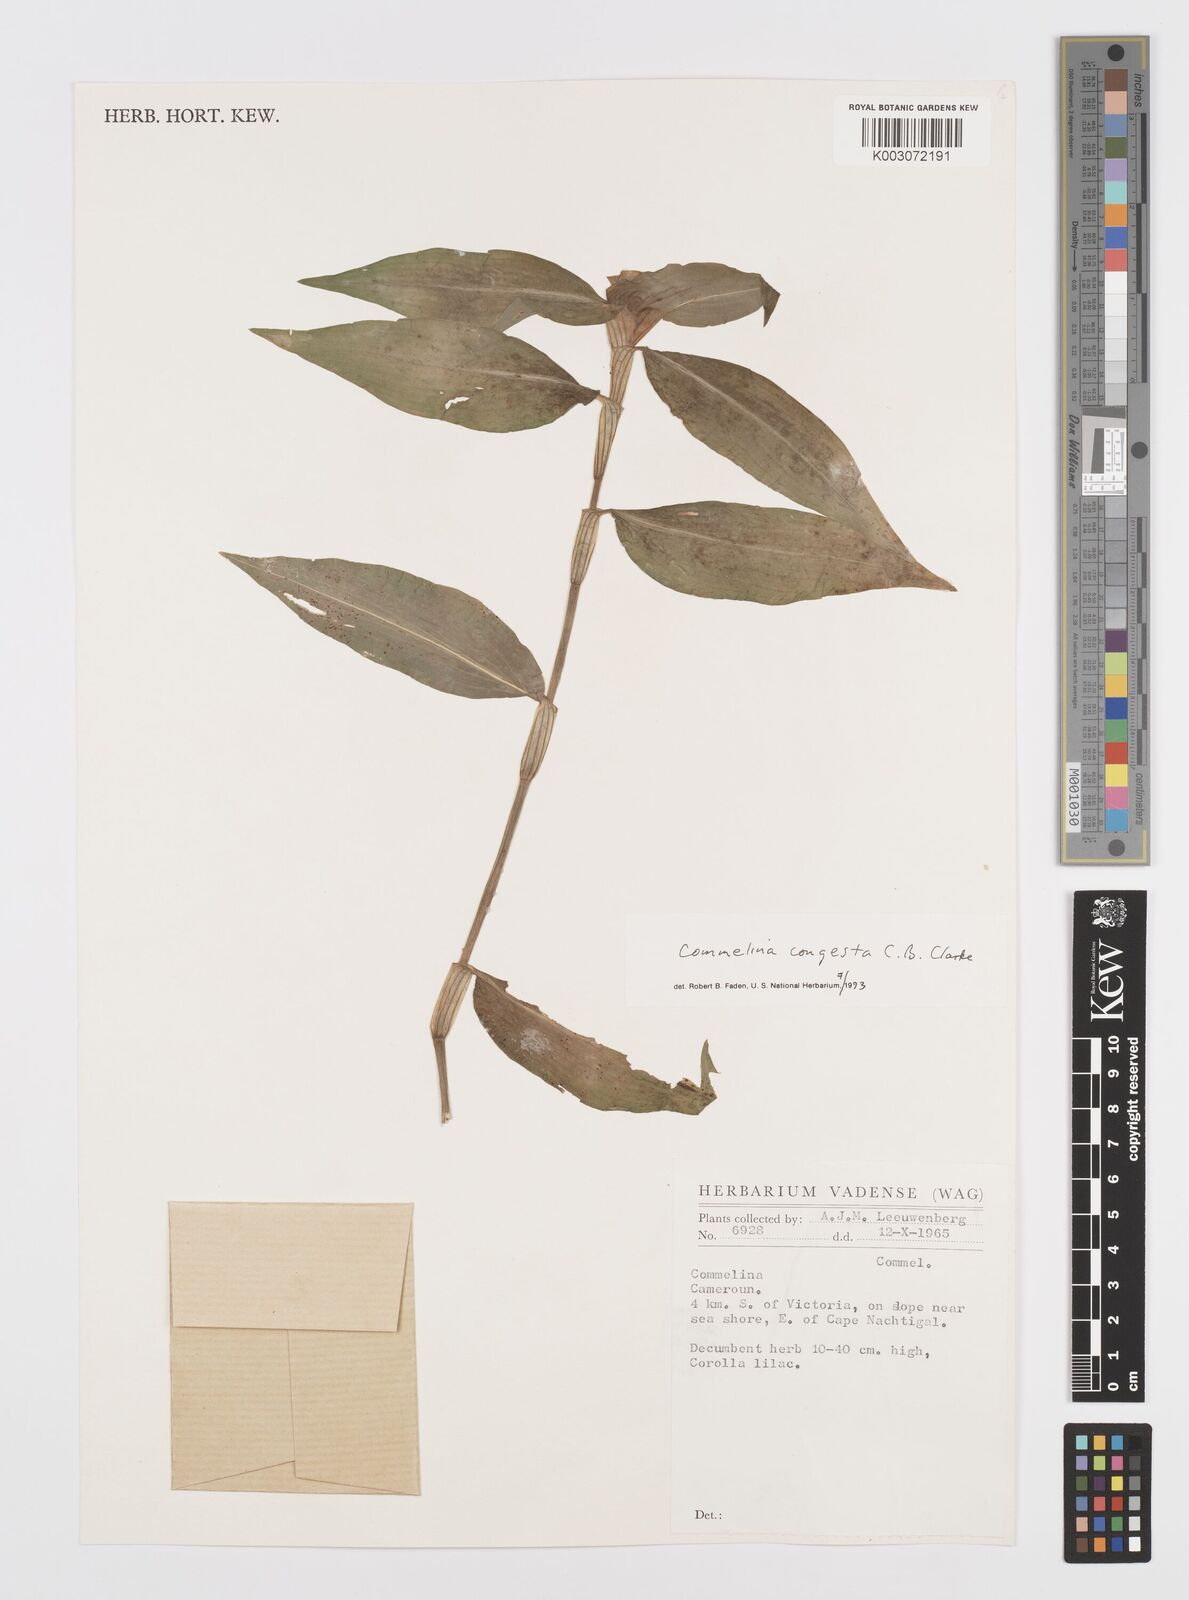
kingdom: Plantae
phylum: Tracheophyta
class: Liliopsida
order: Commelinales
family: Commelinaceae
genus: Commelina
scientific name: Commelina congesta
